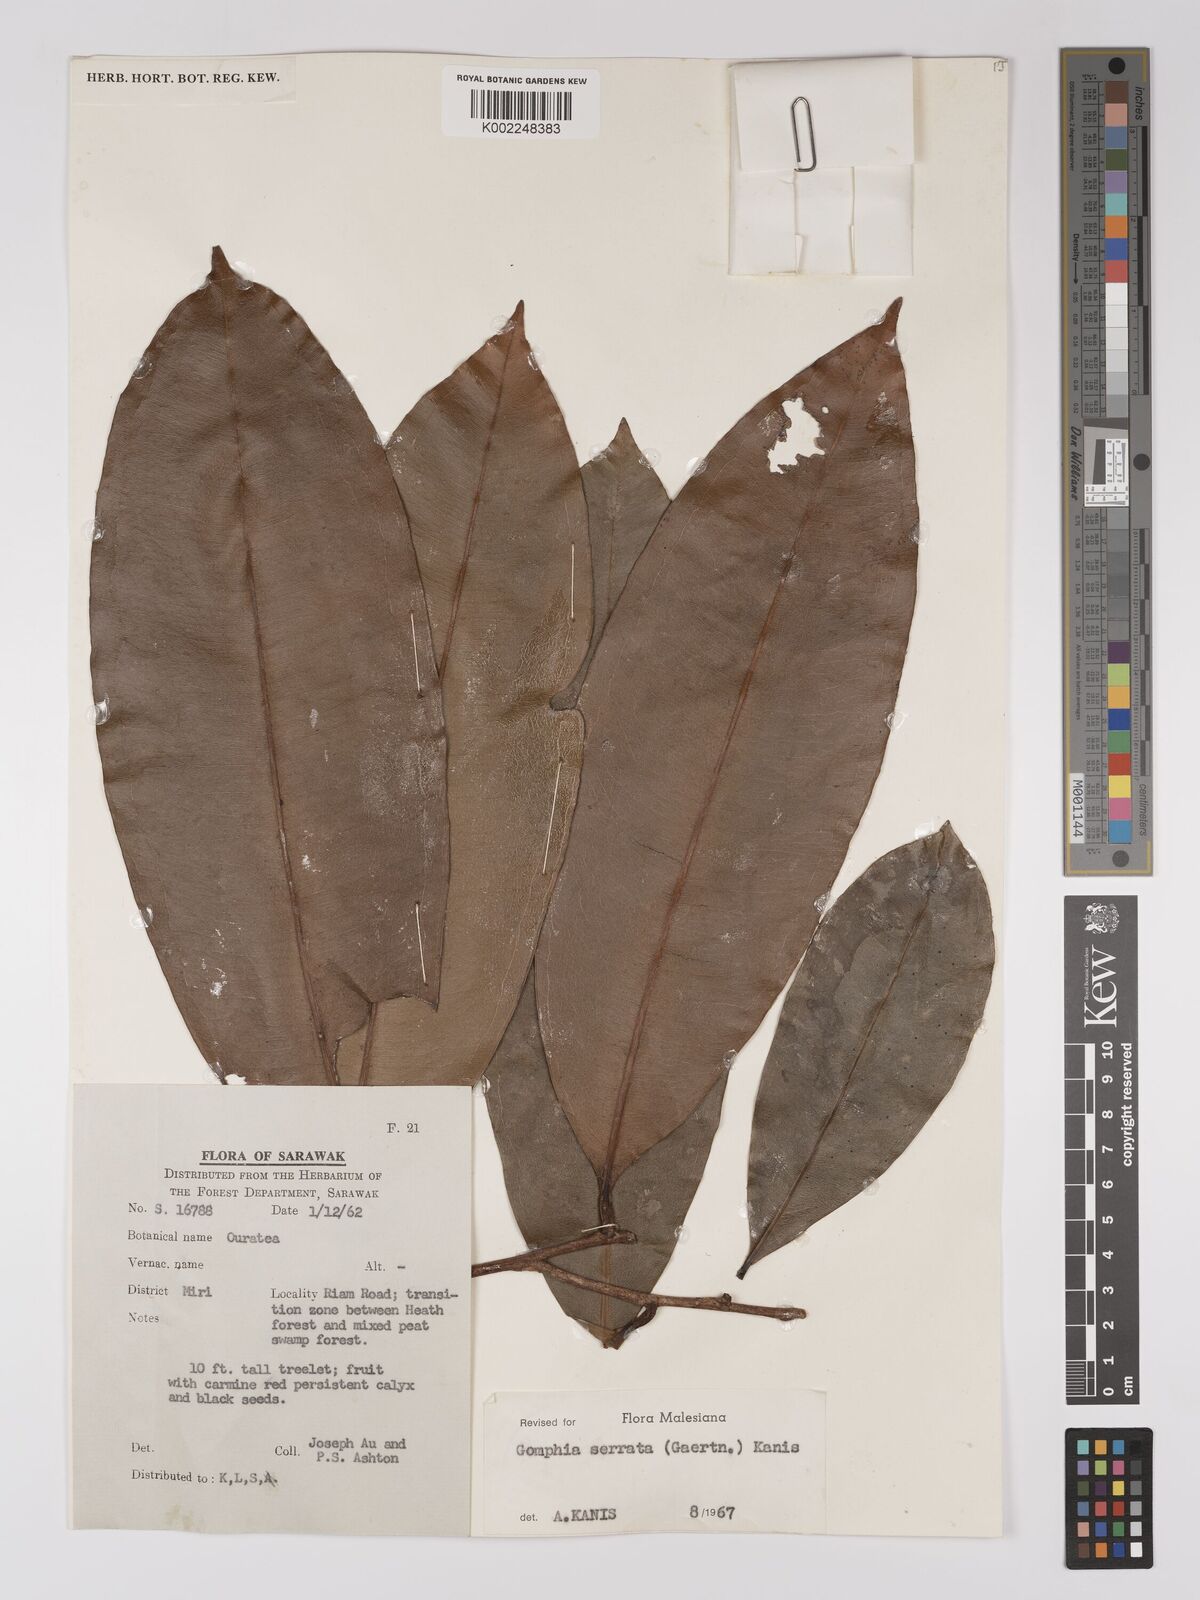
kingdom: Plantae
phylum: Tracheophyta
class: Magnoliopsida
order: Malpighiales
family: Ochnaceae
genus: Gomphia
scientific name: Gomphia serrata
